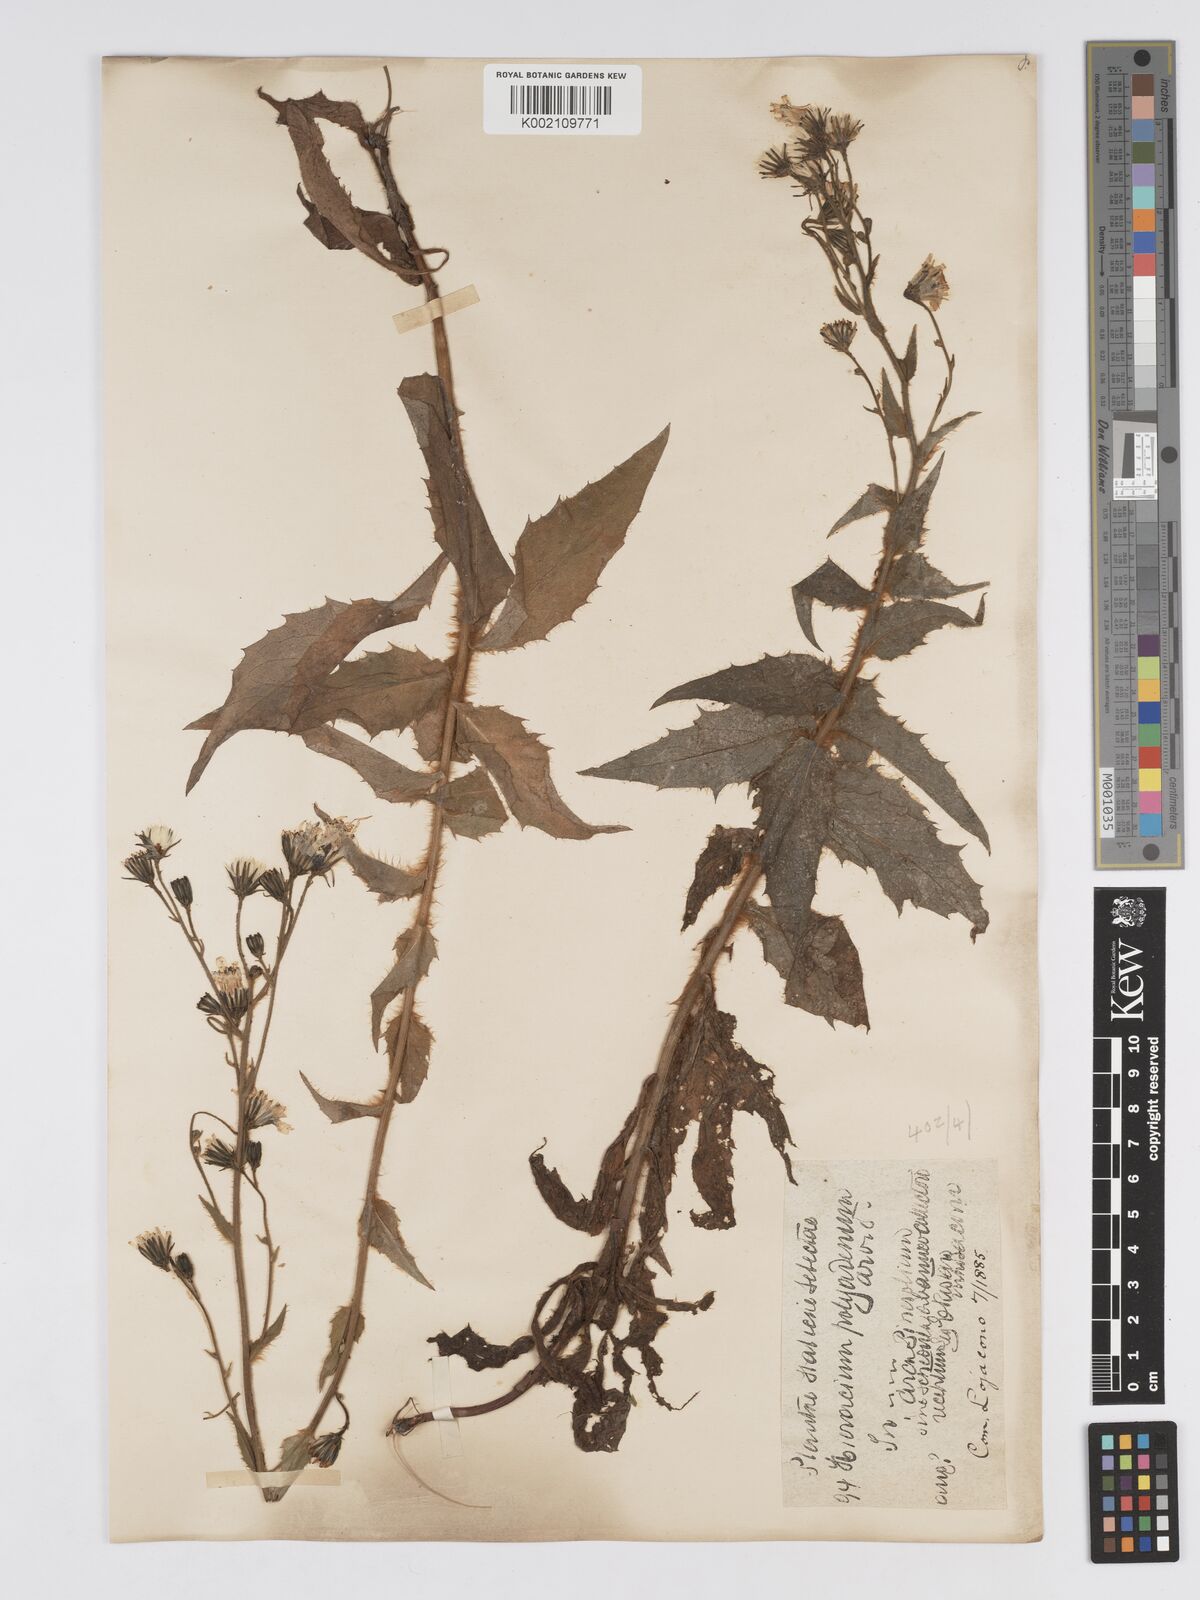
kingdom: Plantae
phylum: Tracheophyta
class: Magnoliopsida
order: Asterales
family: Asteraceae
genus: Hieracium
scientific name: Hieracium symphytaceum
